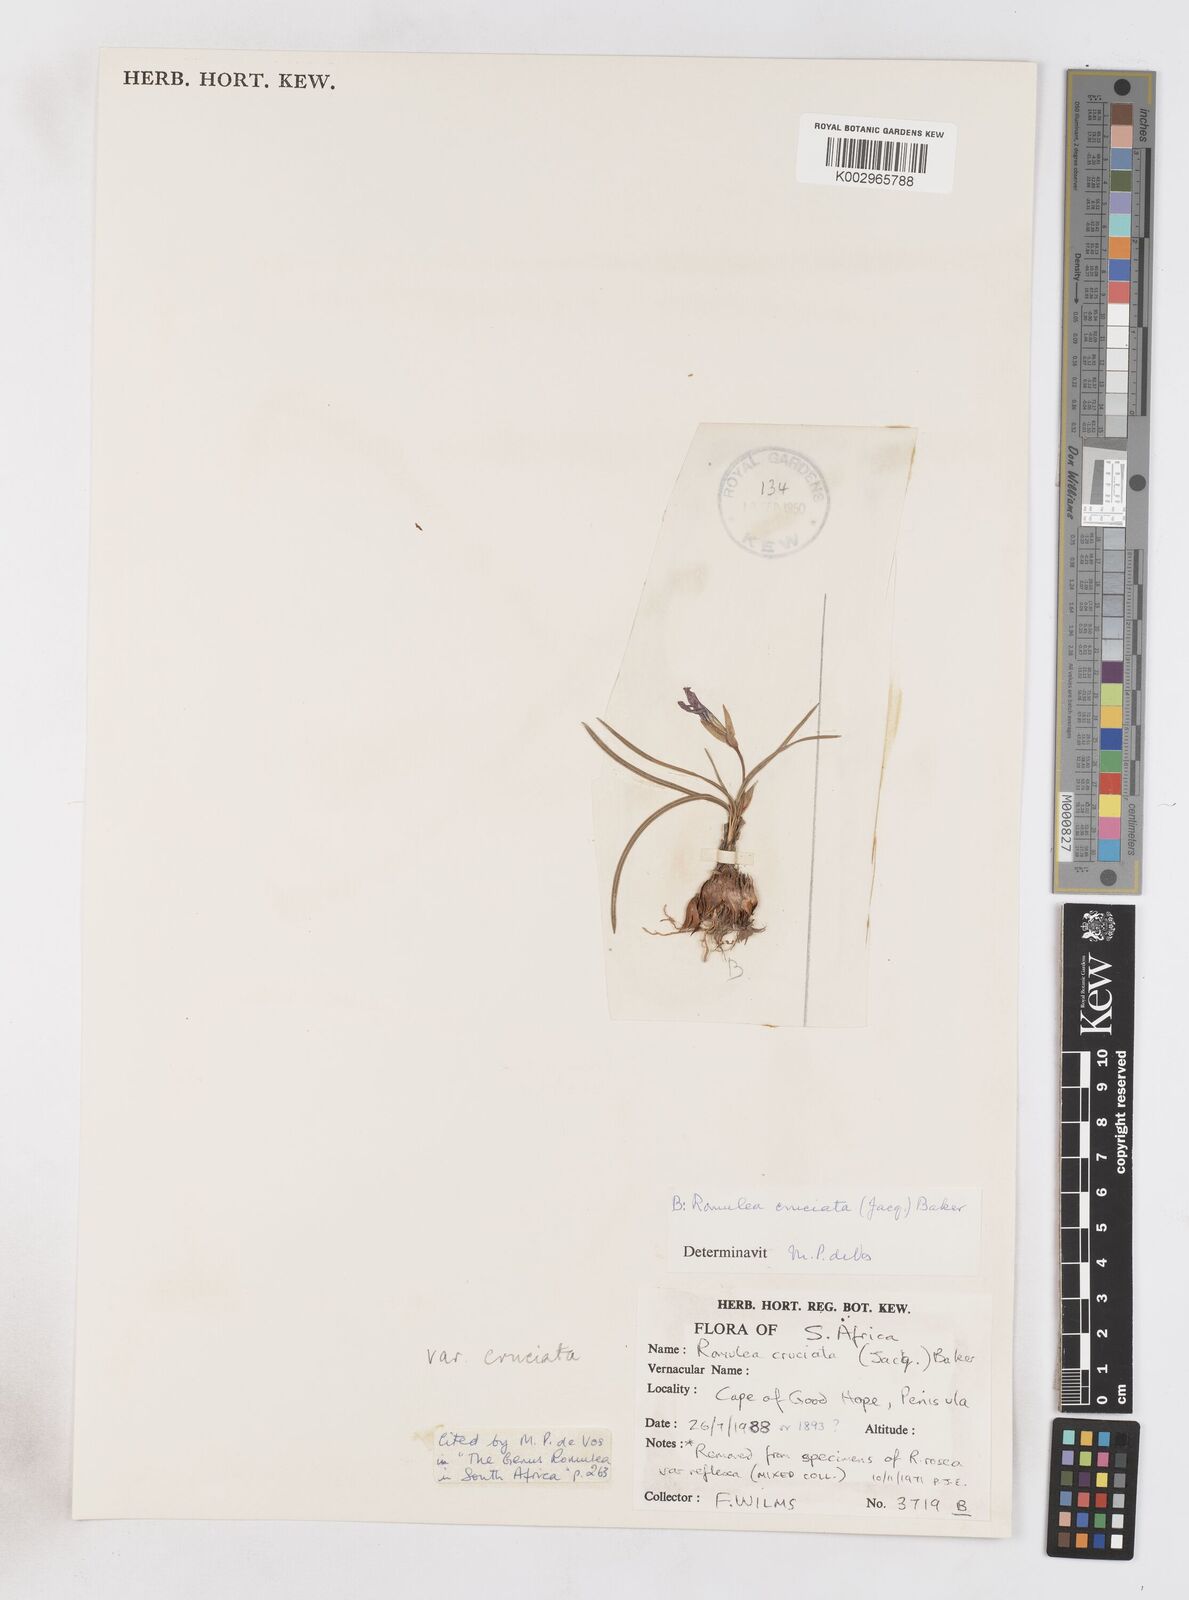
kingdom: Plantae
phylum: Tracheophyta
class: Liliopsida
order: Asparagales
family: Iridaceae
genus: Romulea
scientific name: Romulea cruciata
